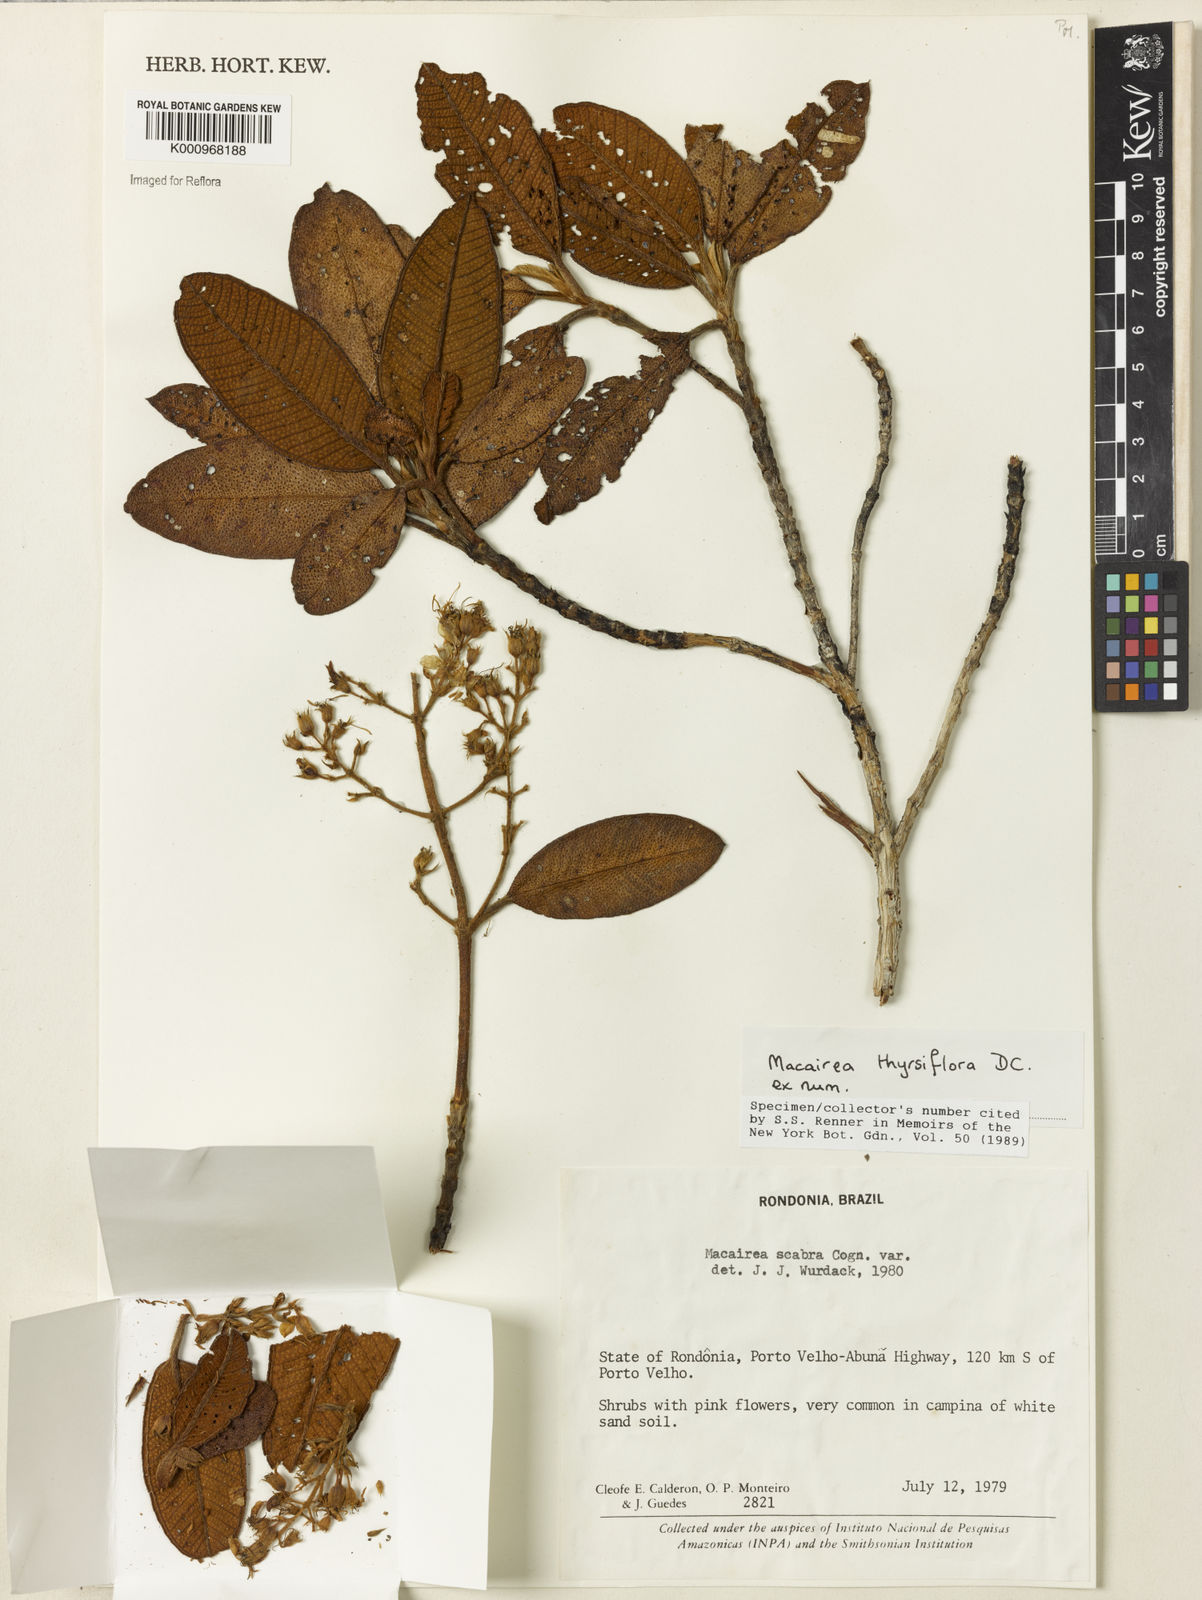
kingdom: Plantae
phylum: Tracheophyta
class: Magnoliopsida
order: Myrtales
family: Melastomataceae
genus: Macairea
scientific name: Macairea thyrsiflora
